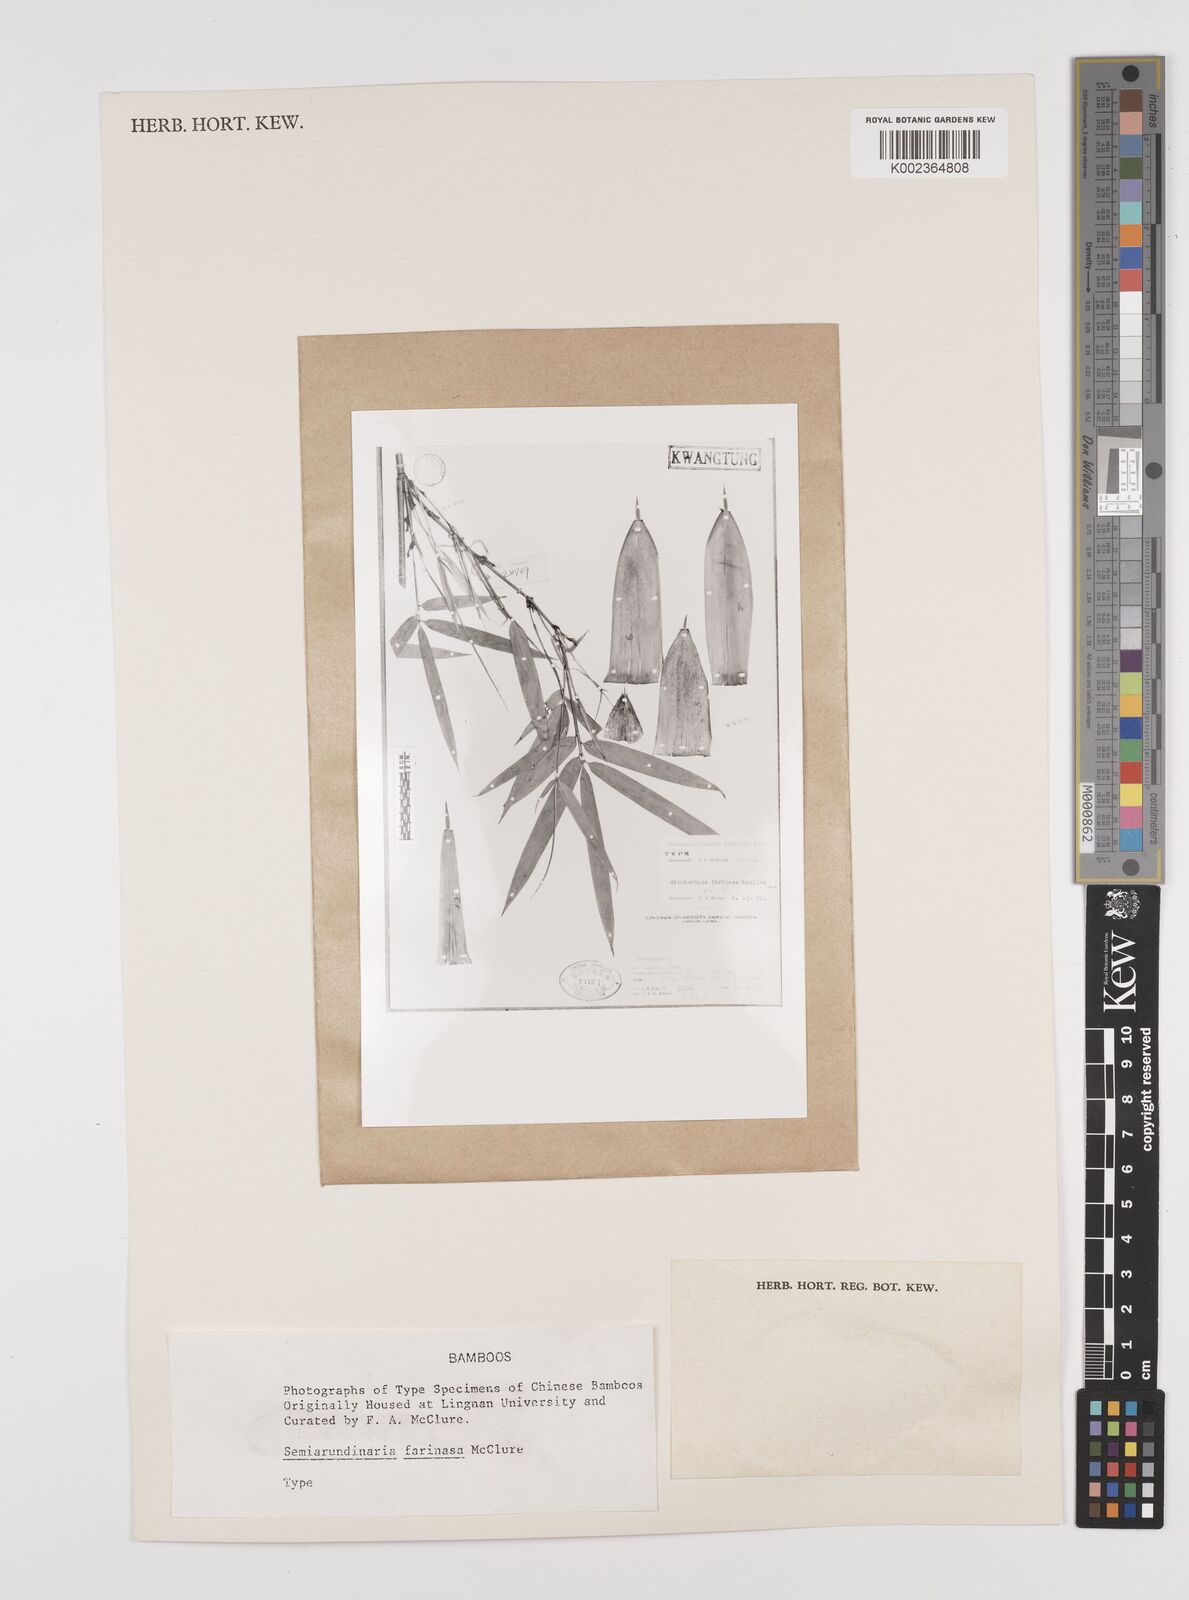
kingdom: Plantae
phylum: Tracheophyta
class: Liliopsida
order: Poales
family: Poaceae
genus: Semiarundinaria
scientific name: Semiarundinaria fastuosa
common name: Narihira bamboo
